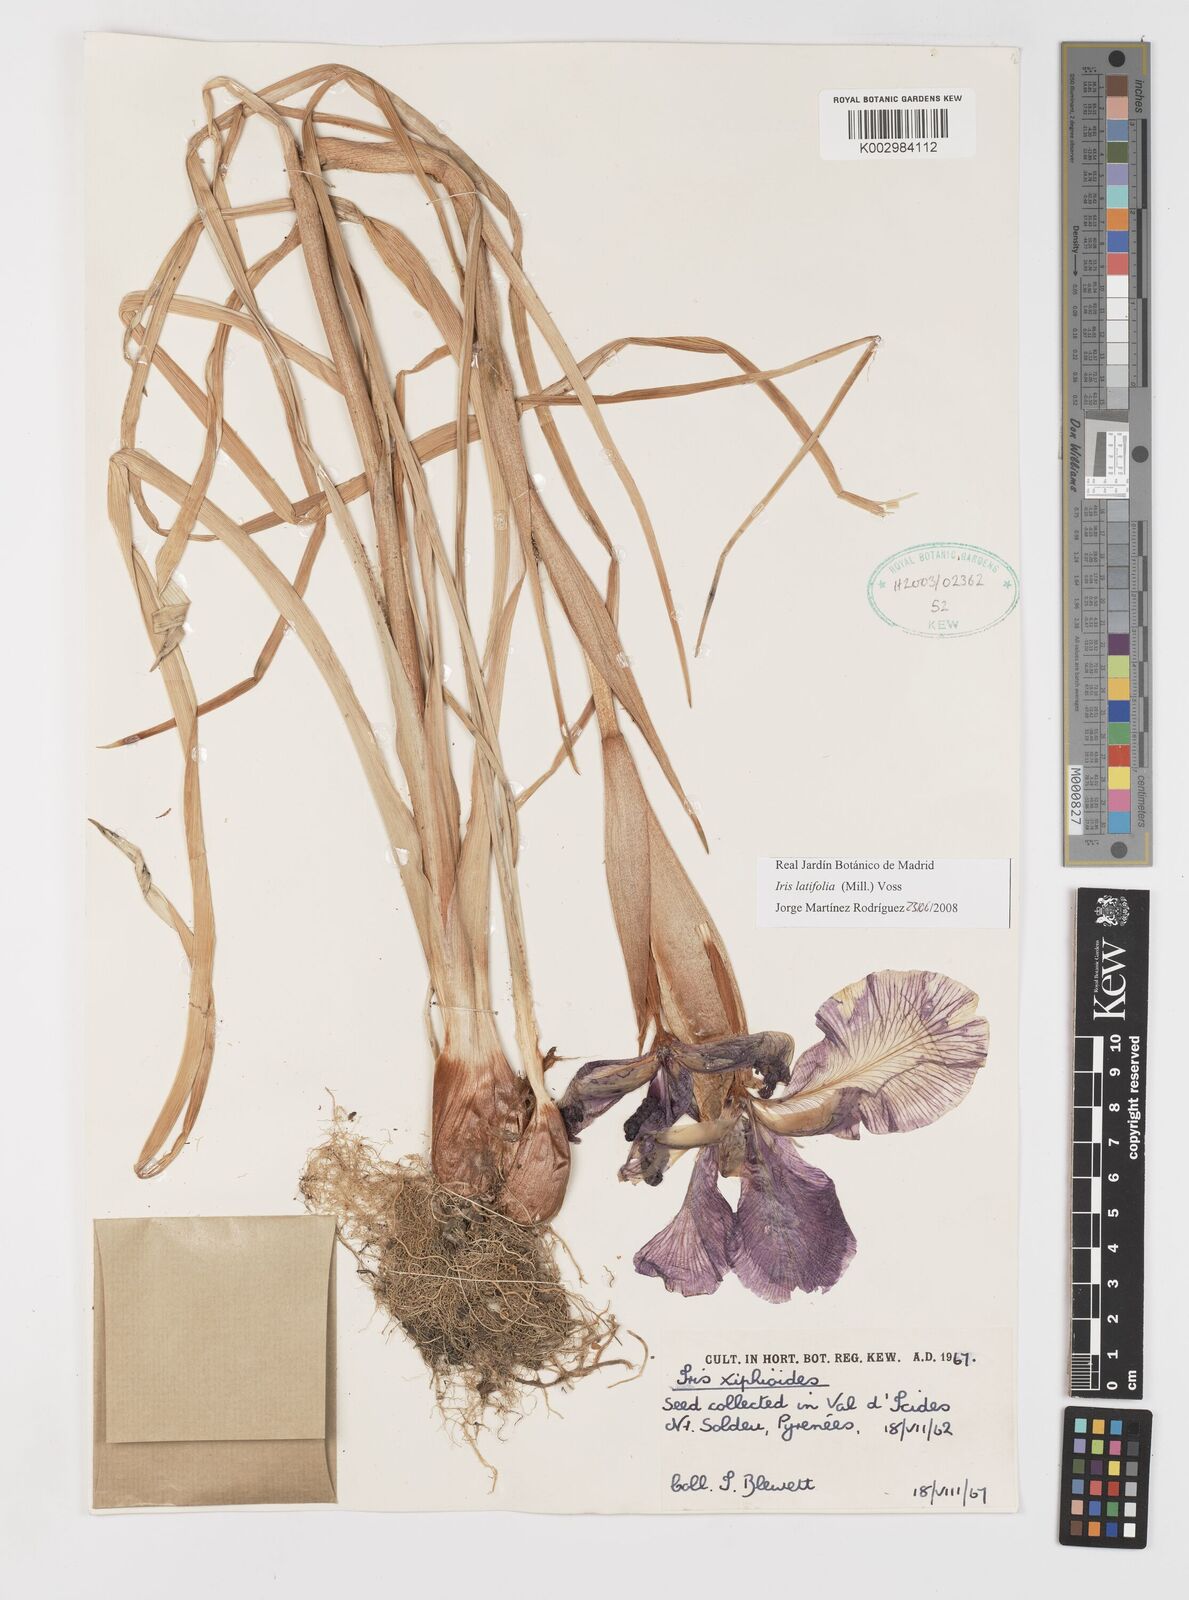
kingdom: Plantae
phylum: Tracheophyta
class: Liliopsida
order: Asparagales
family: Iridaceae
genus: Iris
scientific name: Iris jacquinii
